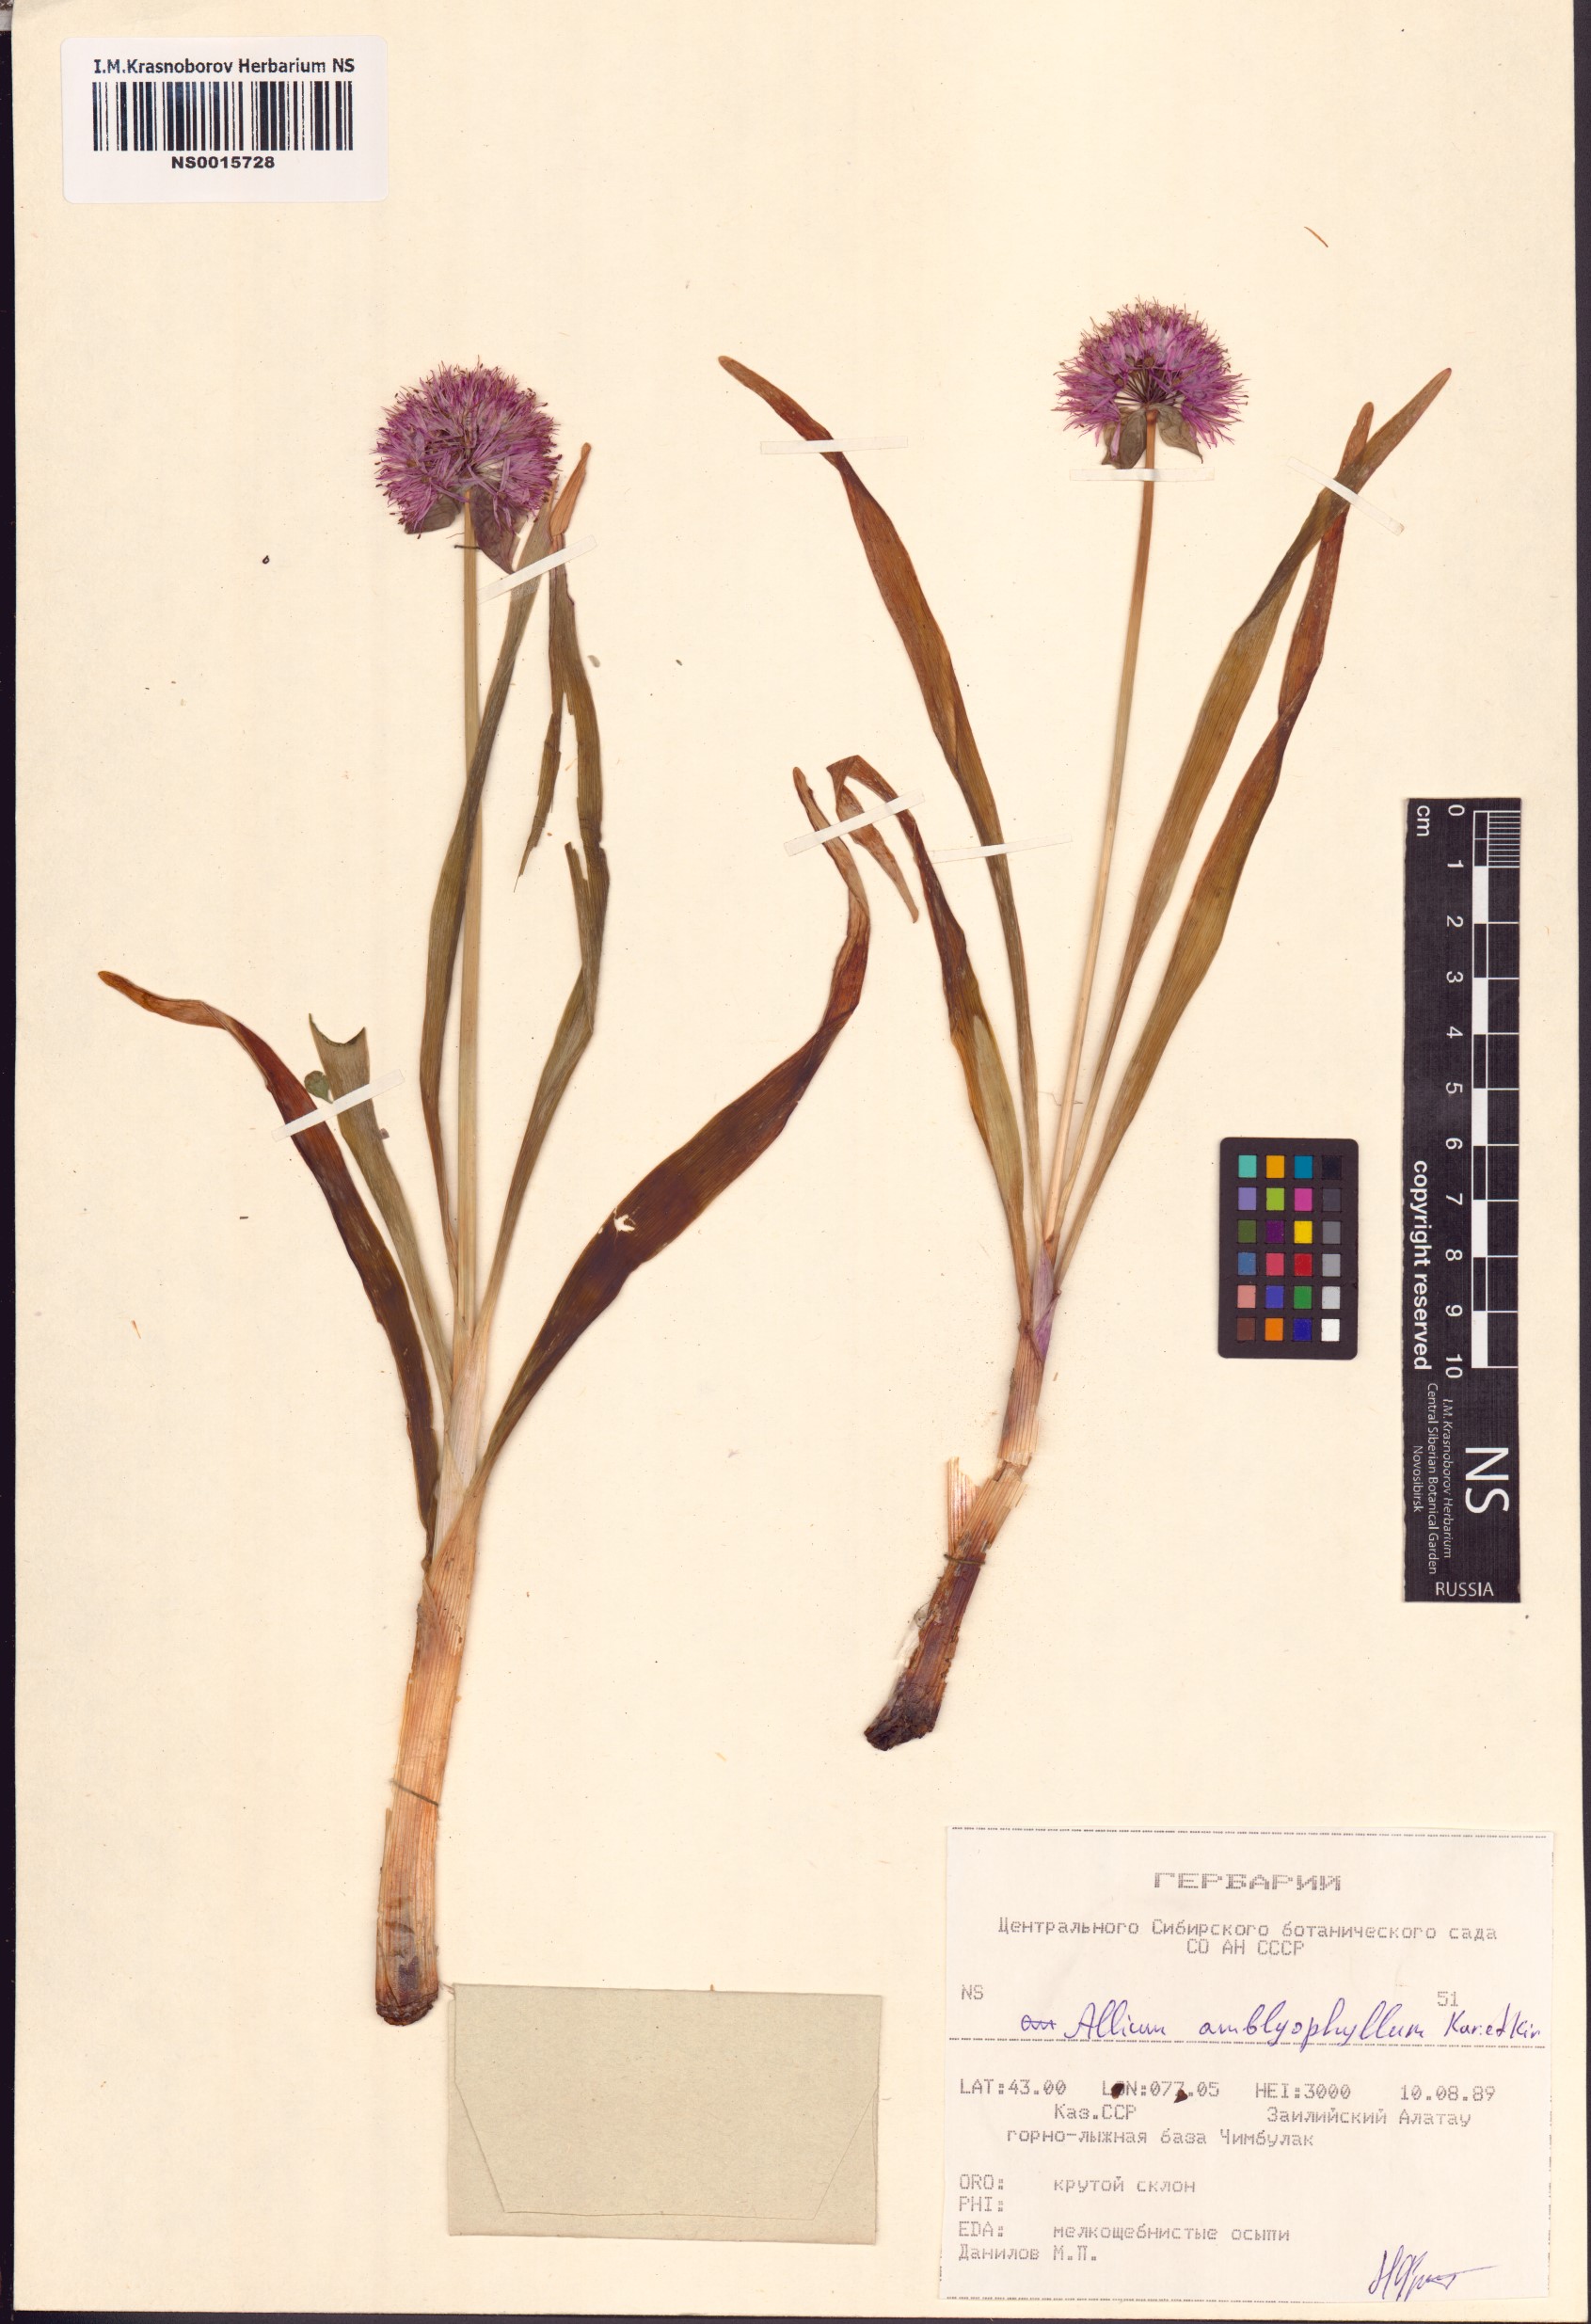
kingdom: Plantae
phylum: Tracheophyta
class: Liliopsida
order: Asparagales
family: Amaryllidaceae
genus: Allium
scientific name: Allium platyspathum
